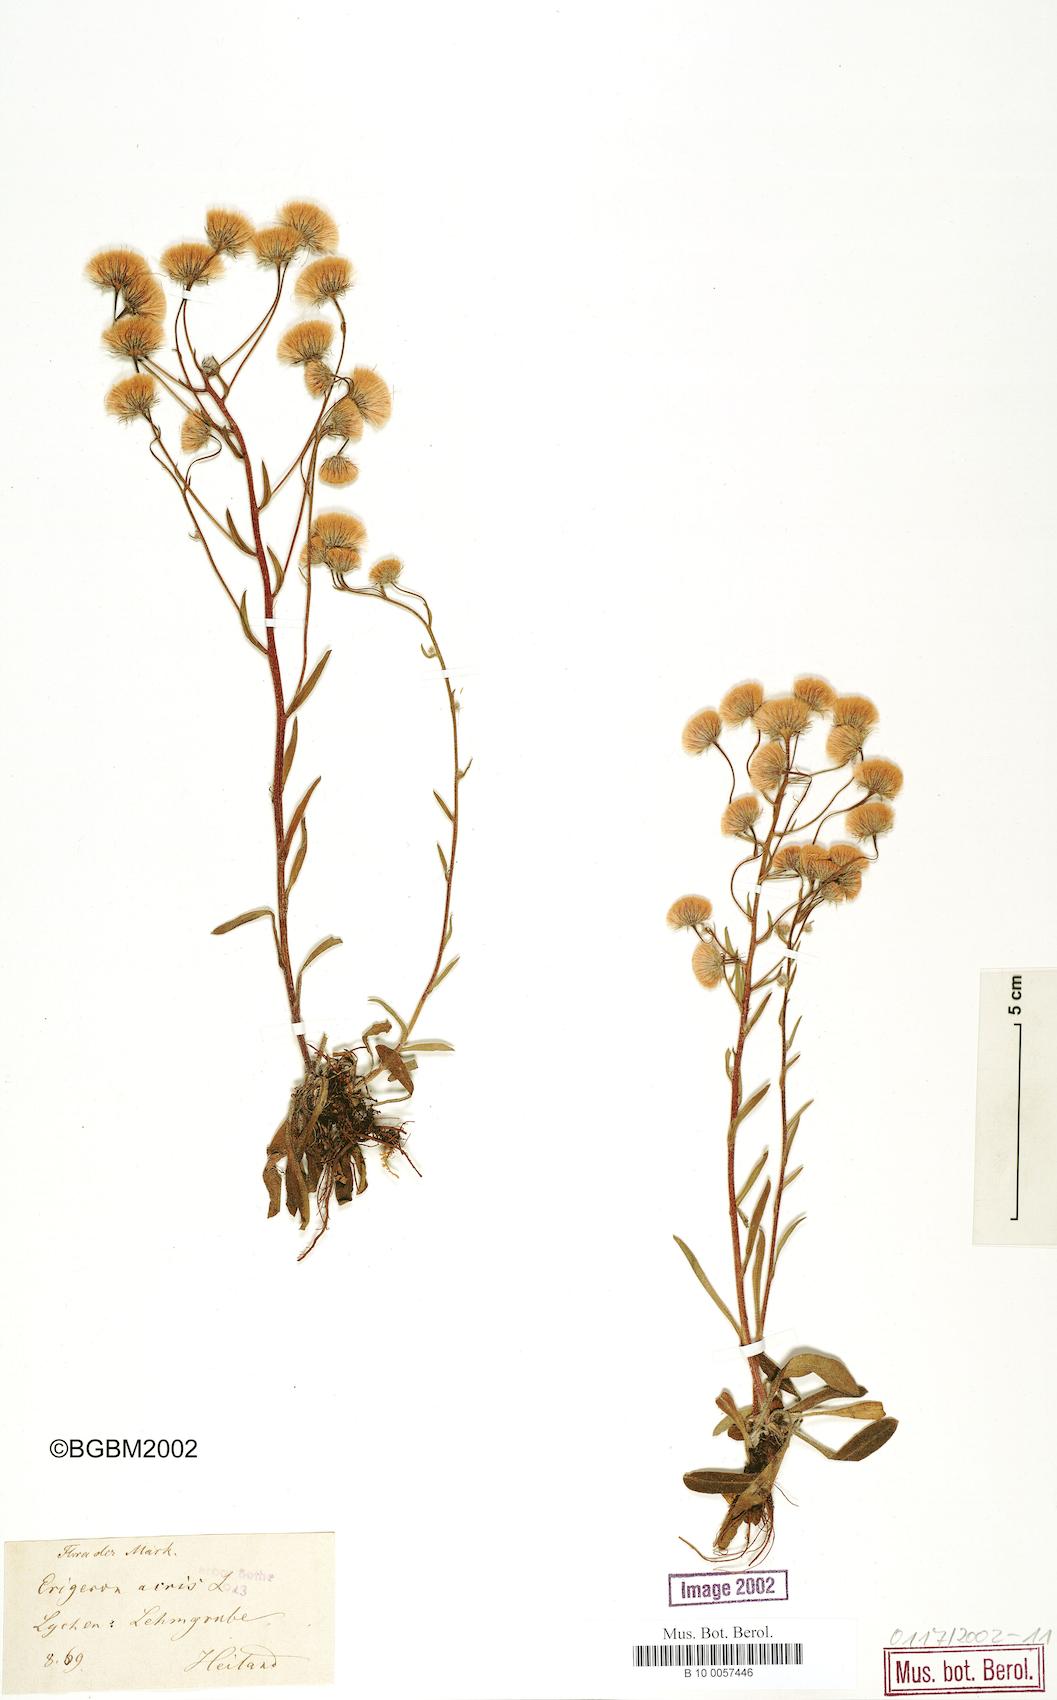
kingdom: Plantae
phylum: Tracheophyta
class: Magnoliopsida
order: Asterales
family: Asteraceae
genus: Erigeron
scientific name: Erigeron acris
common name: Blue fleabane
